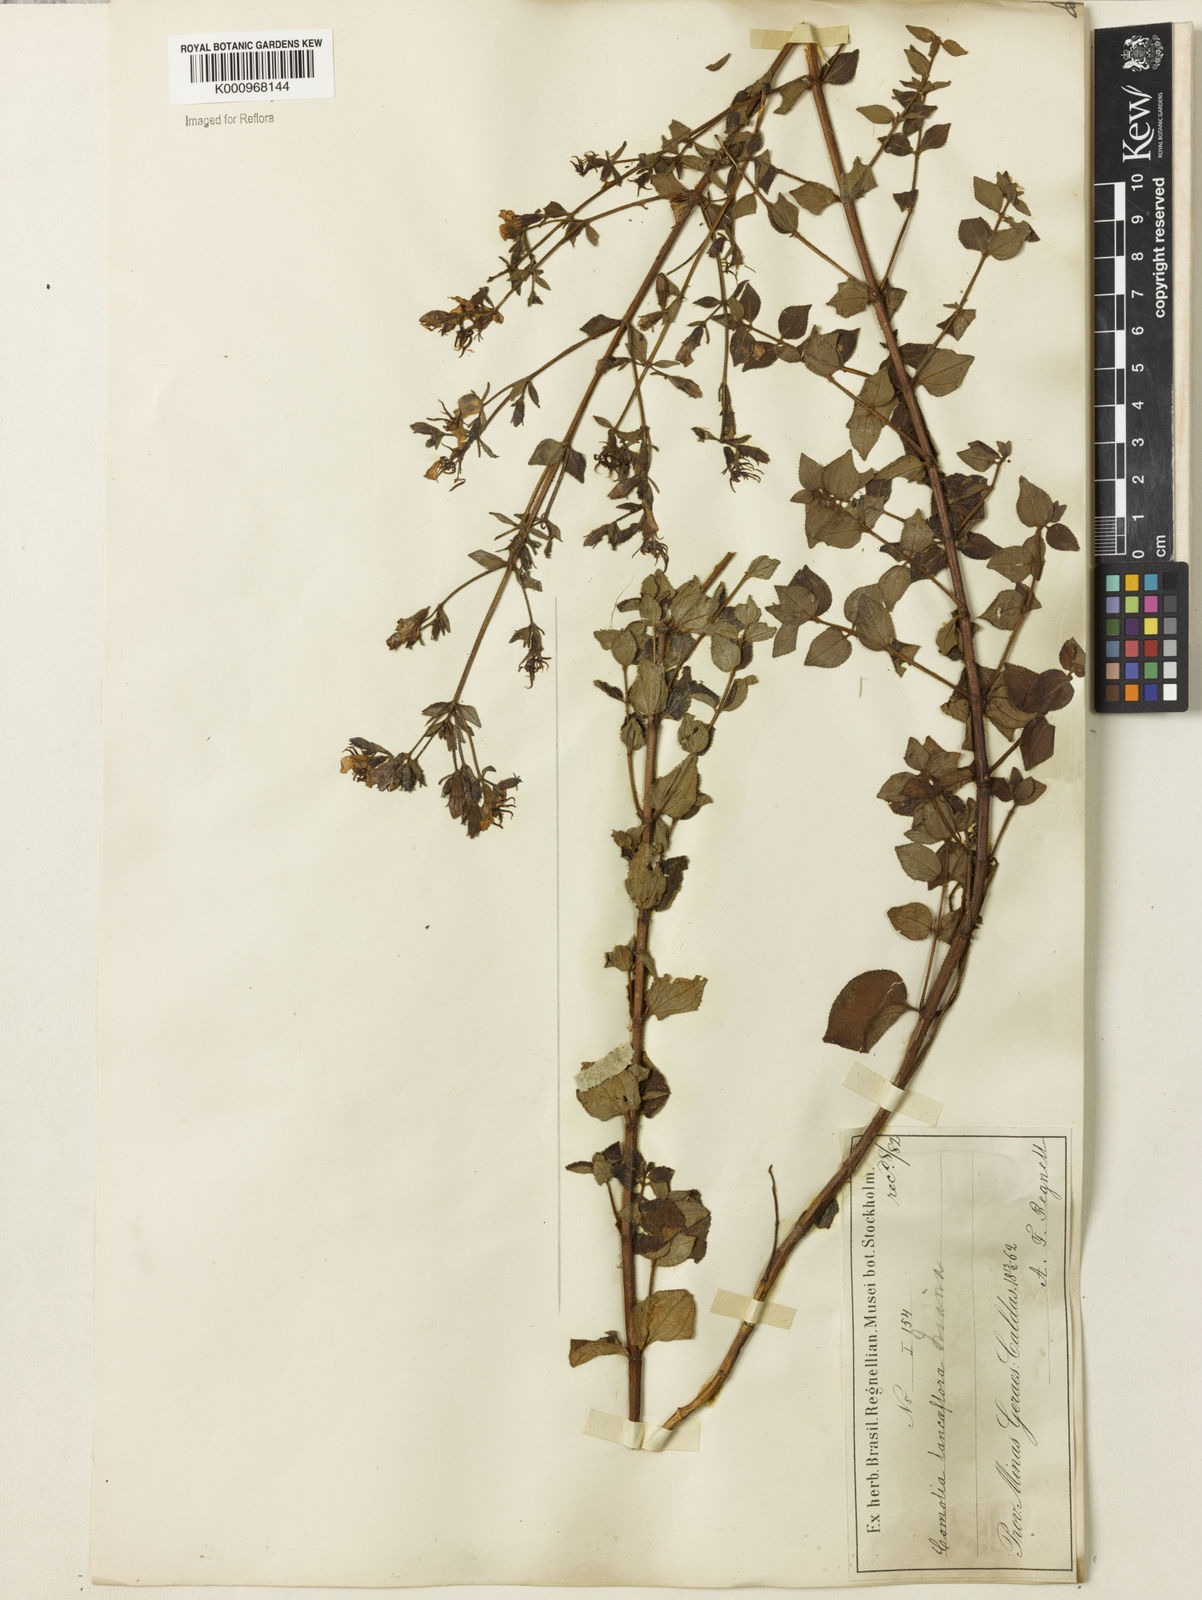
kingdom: Plantae
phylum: Tracheophyta
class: Magnoliopsida
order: Myrtales
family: Melastomataceae
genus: Fritzschia
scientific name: Fritzschia lanceiflora
